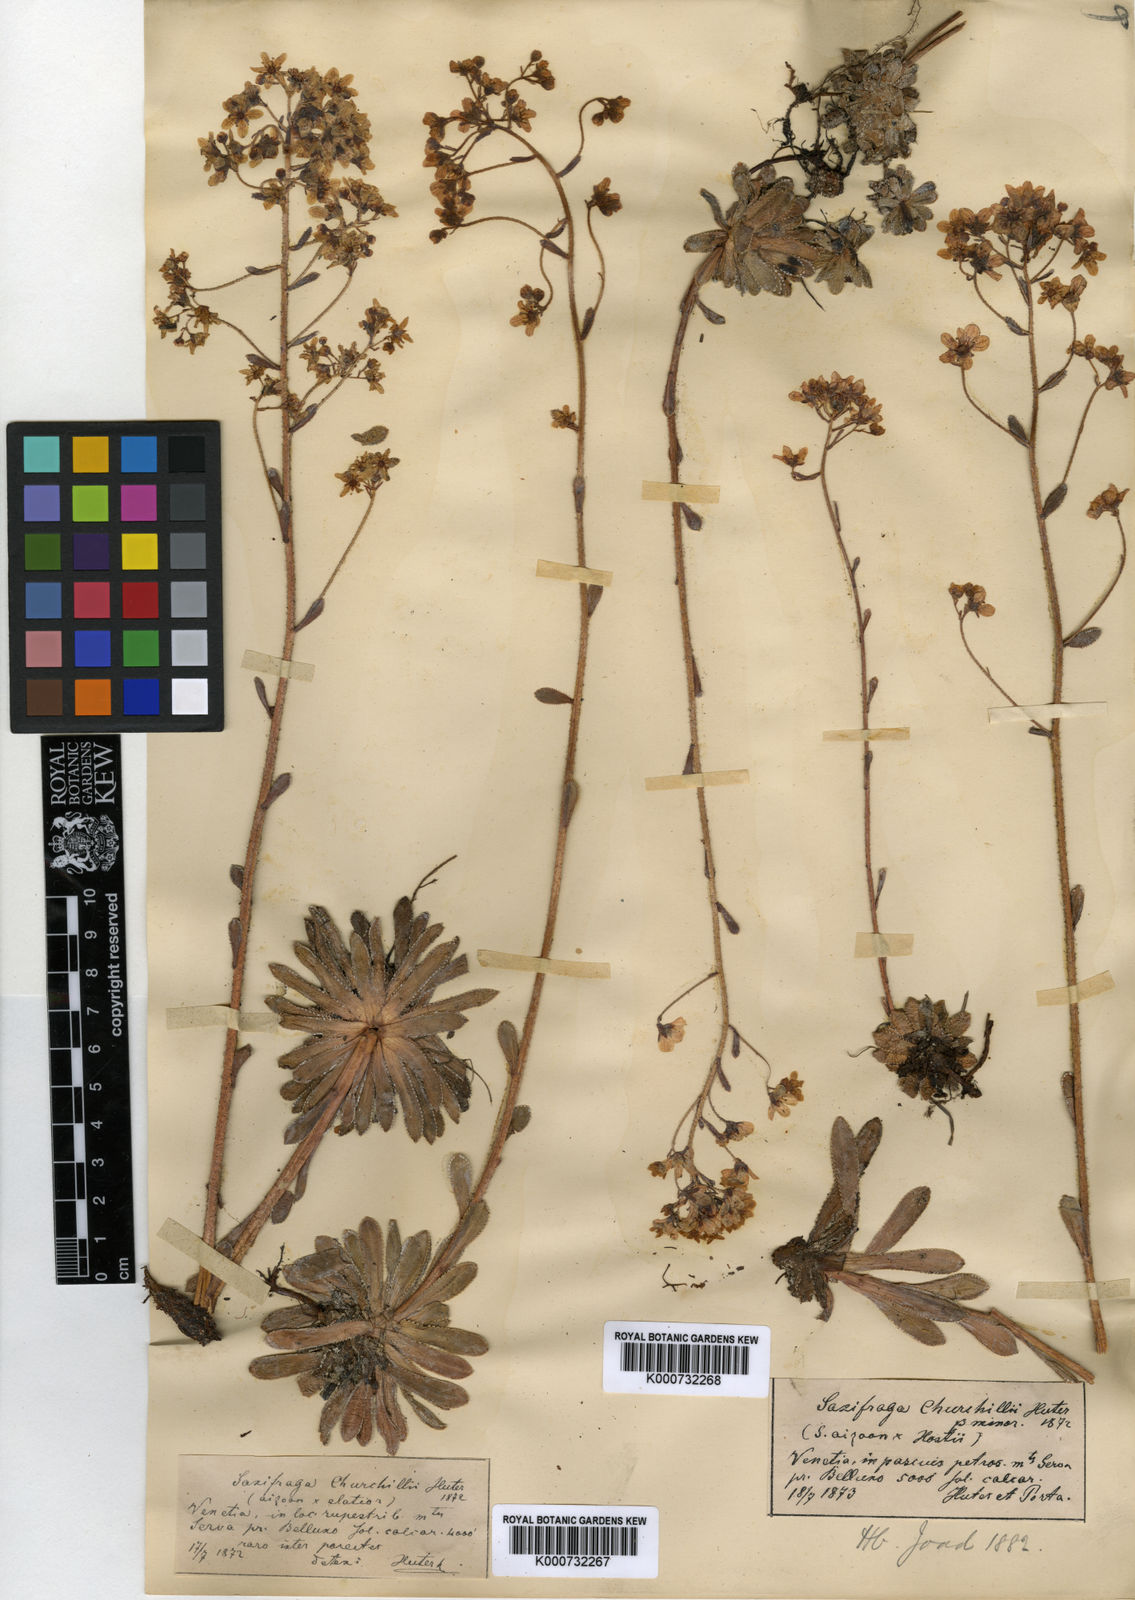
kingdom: Plantae
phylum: Tracheophyta
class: Magnoliopsida
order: Saxifragales
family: Saxifragaceae
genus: Saxifraga
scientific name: Saxifraga paniculata
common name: Livelong saxifrage
